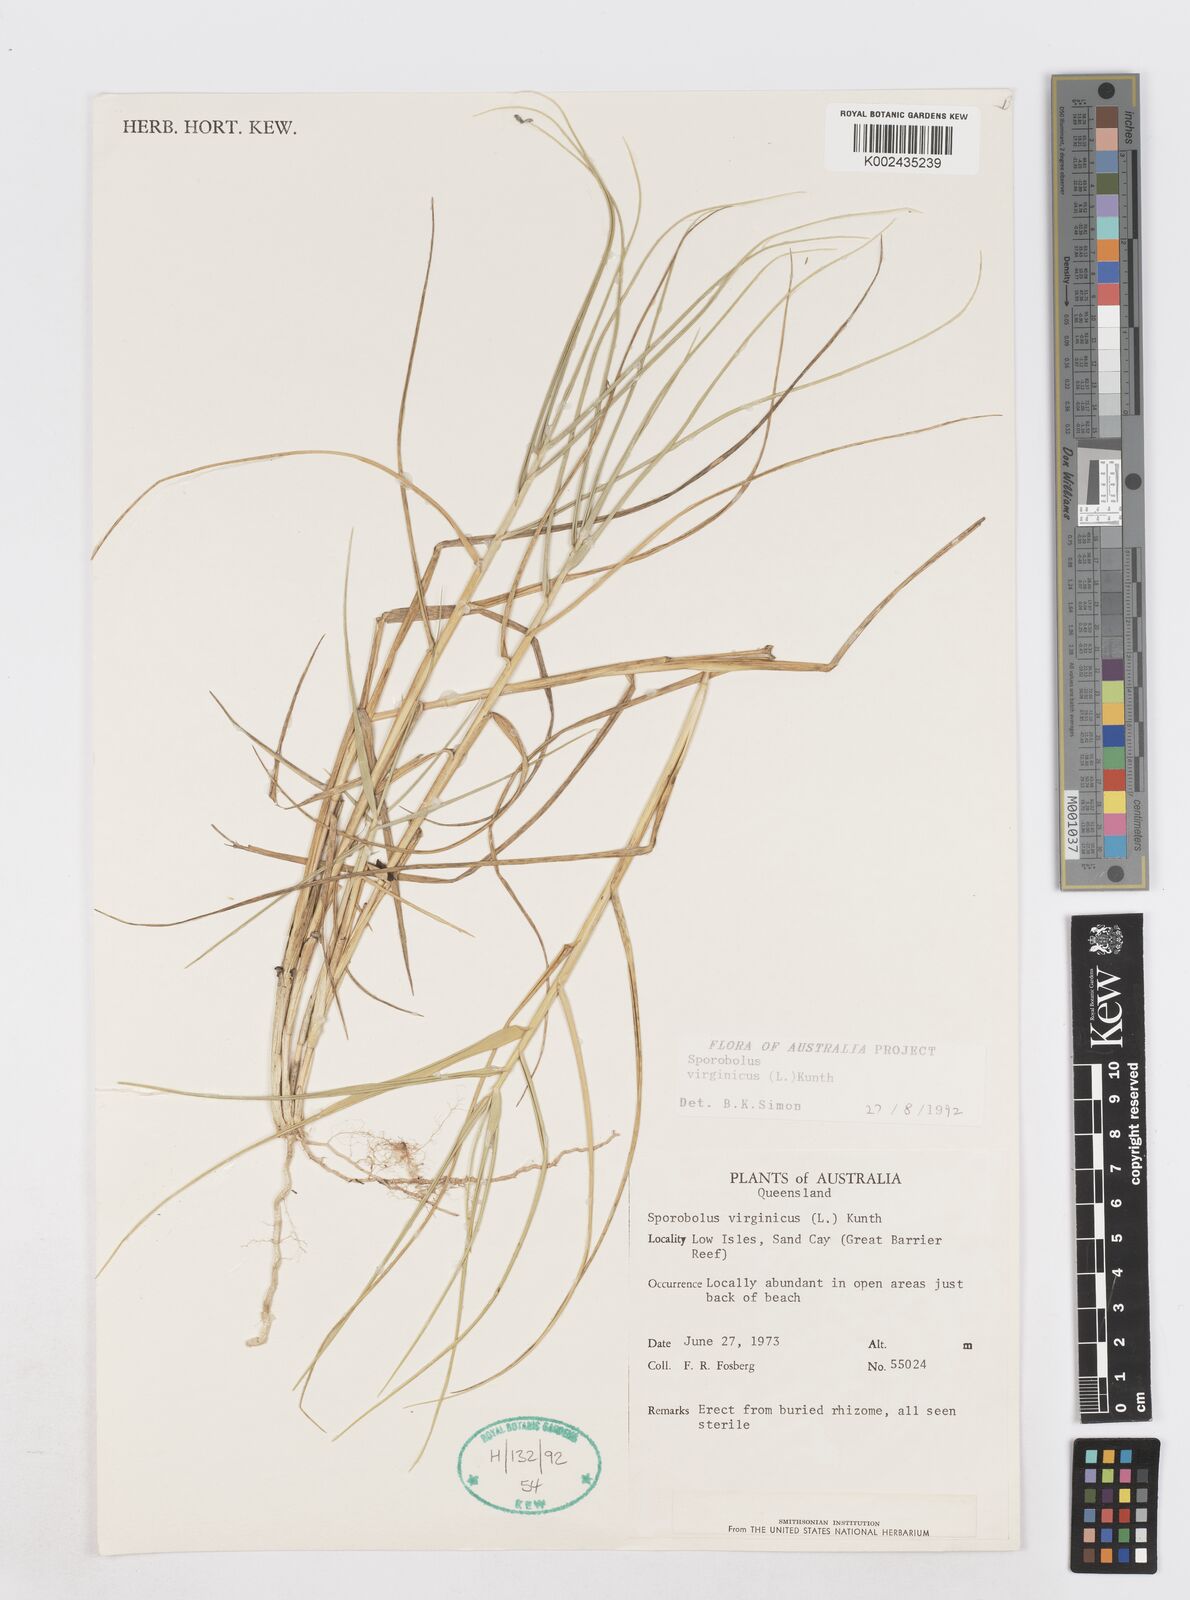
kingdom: Plantae
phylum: Tracheophyta
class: Liliopsida
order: Poales
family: Poaceae
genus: Sporobolus
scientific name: Sporobolus virginicus
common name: Beach dropseed
